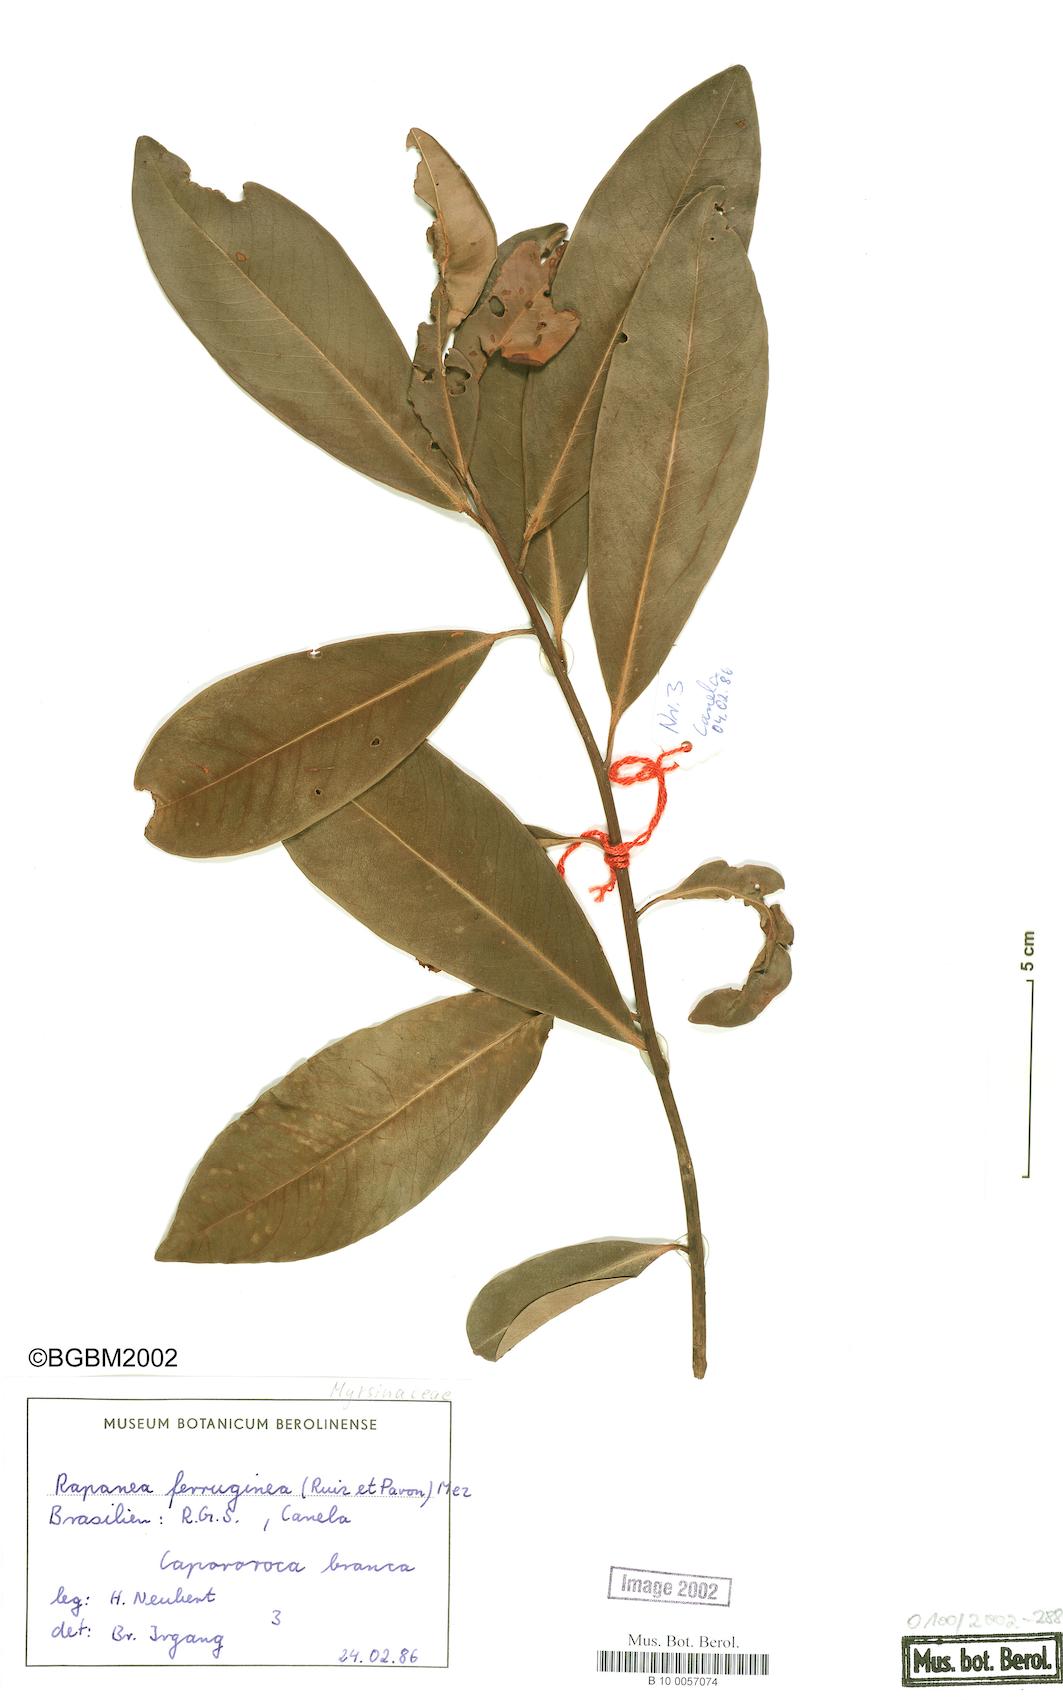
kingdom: Plantae
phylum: Tracheophyta
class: Magnoliopsida
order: Ericales
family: Primulaceae
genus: Myrsine
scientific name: Myrsine coriacea
